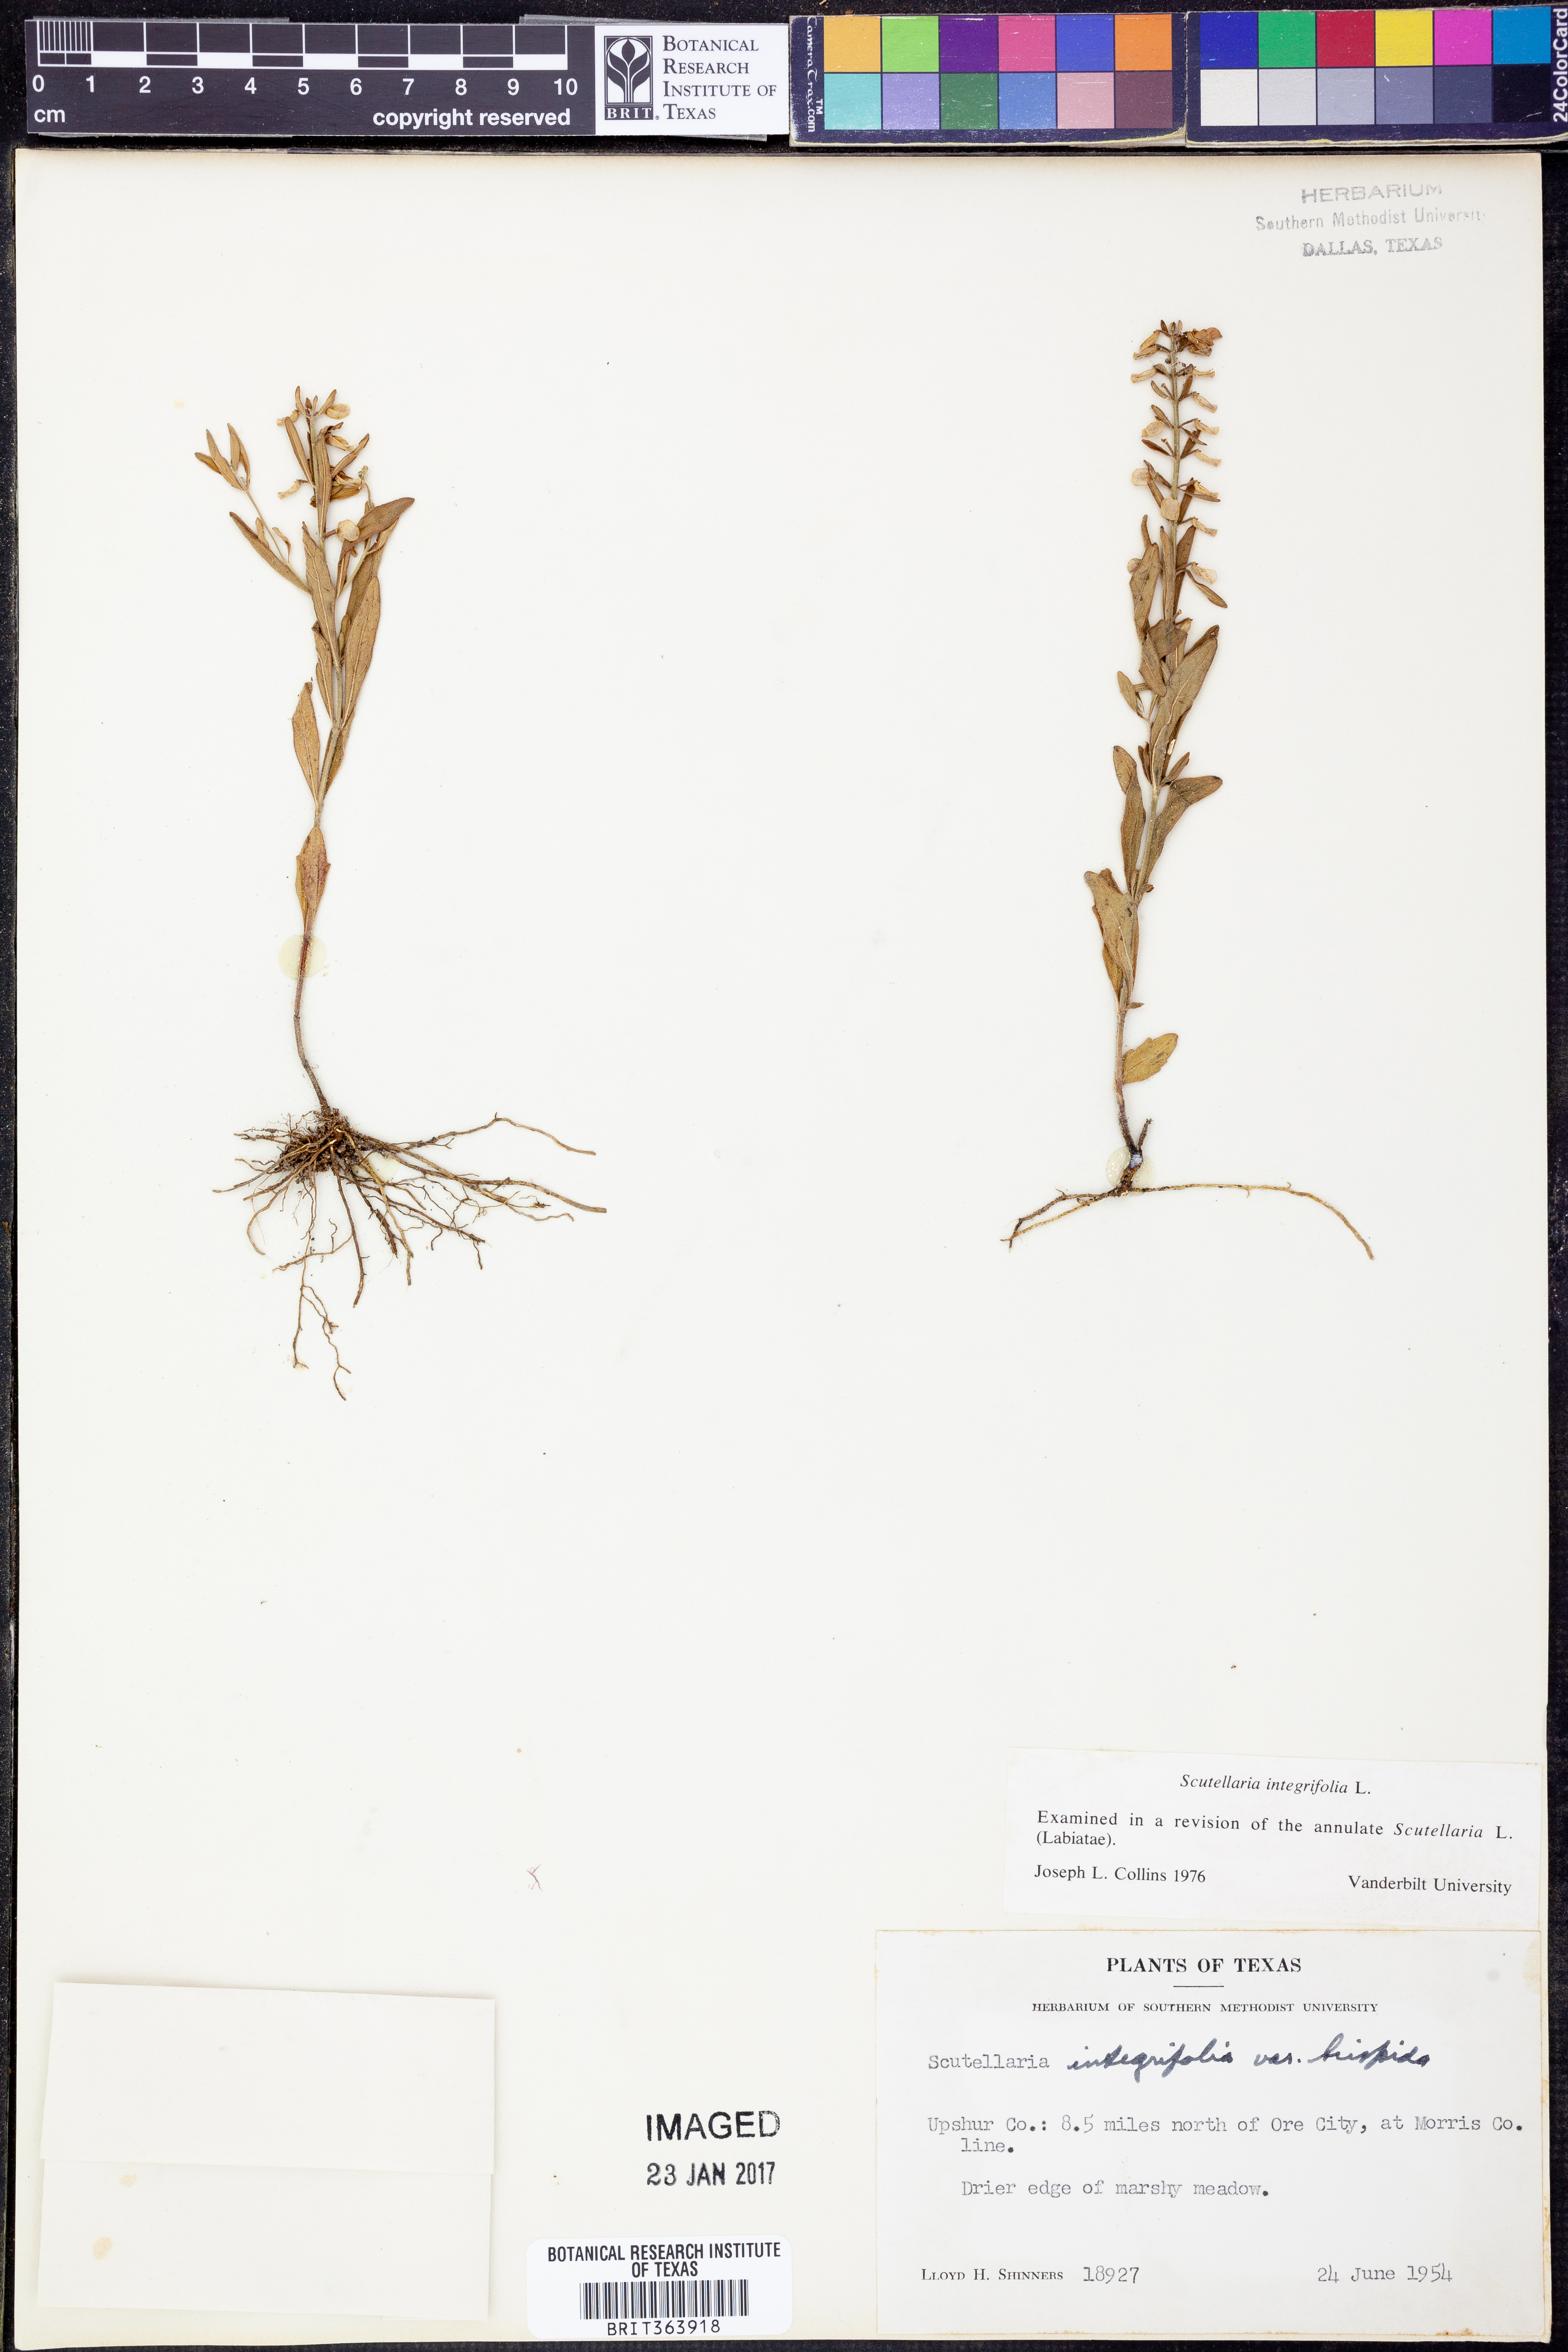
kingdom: Plantae
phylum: Tracheophyta
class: Magnoliopsida
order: Lamiales
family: Lamiaceae
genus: Scutellaria
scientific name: Scutellaria integrifolia
